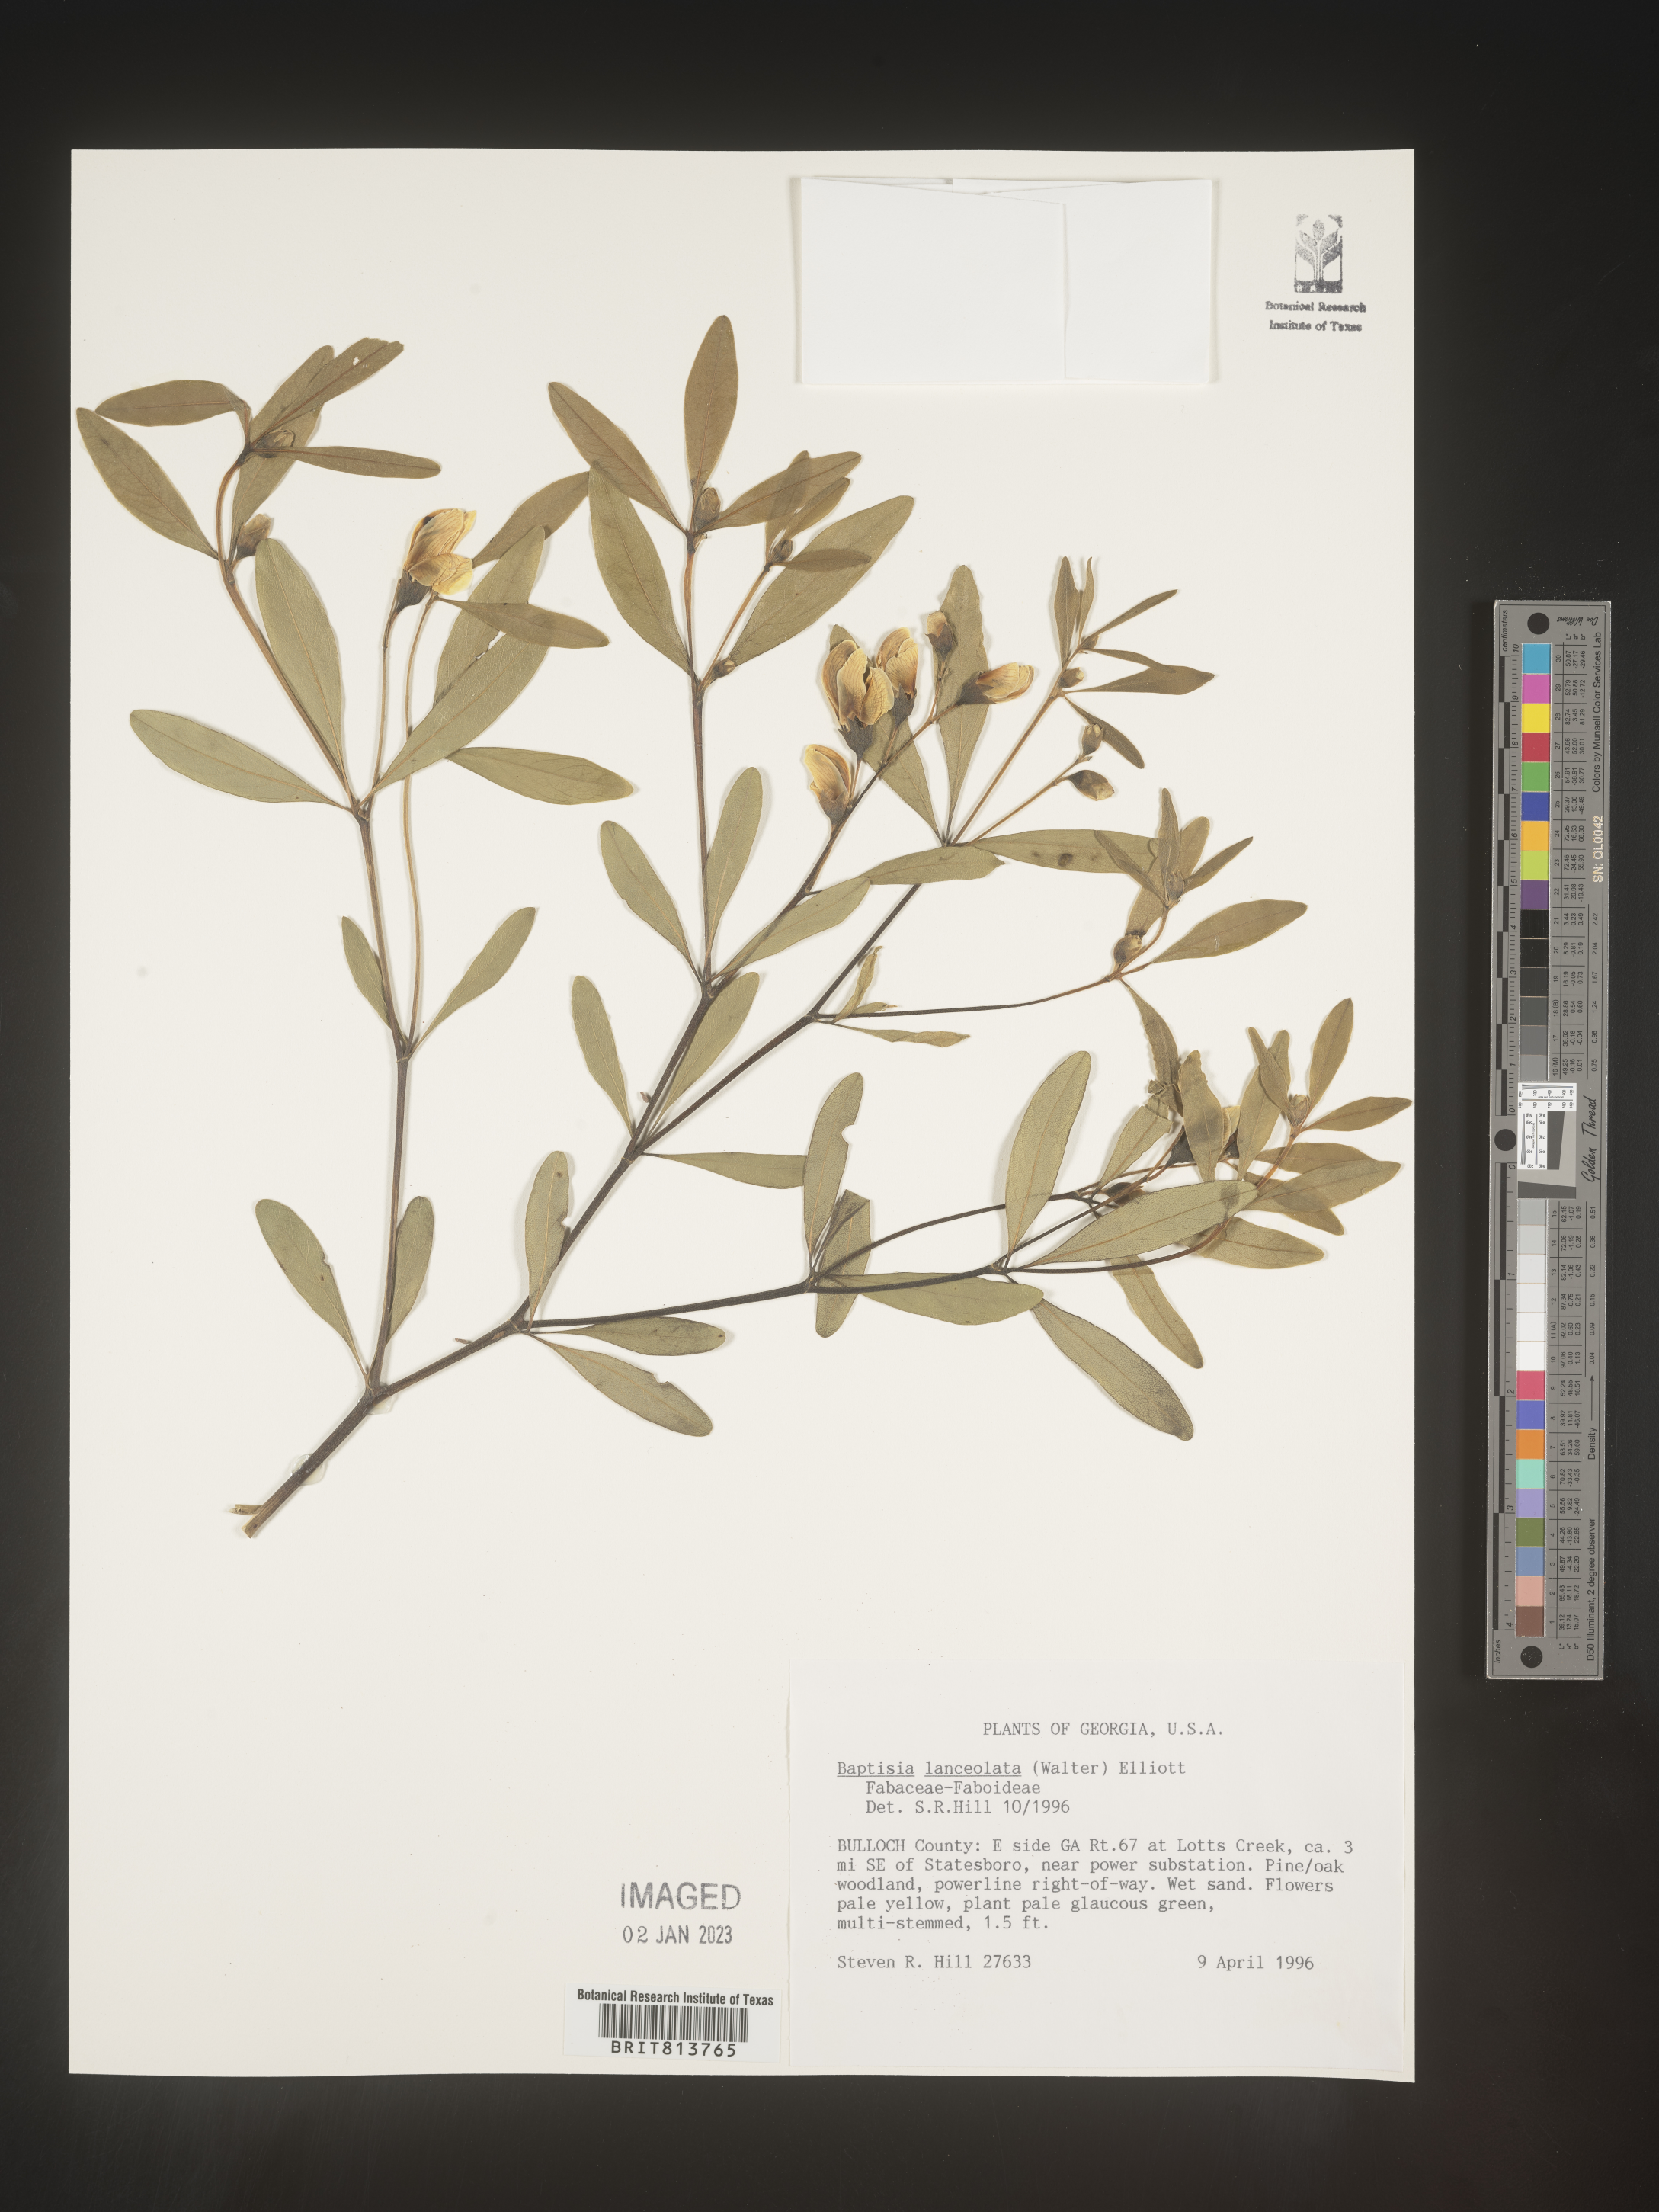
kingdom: Plantae
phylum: Tracheophyta
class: Magnoliopsida
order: Fabales
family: Fabaceae
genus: Baptisia
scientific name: Baptisia lanceolata
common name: Gopherweed
